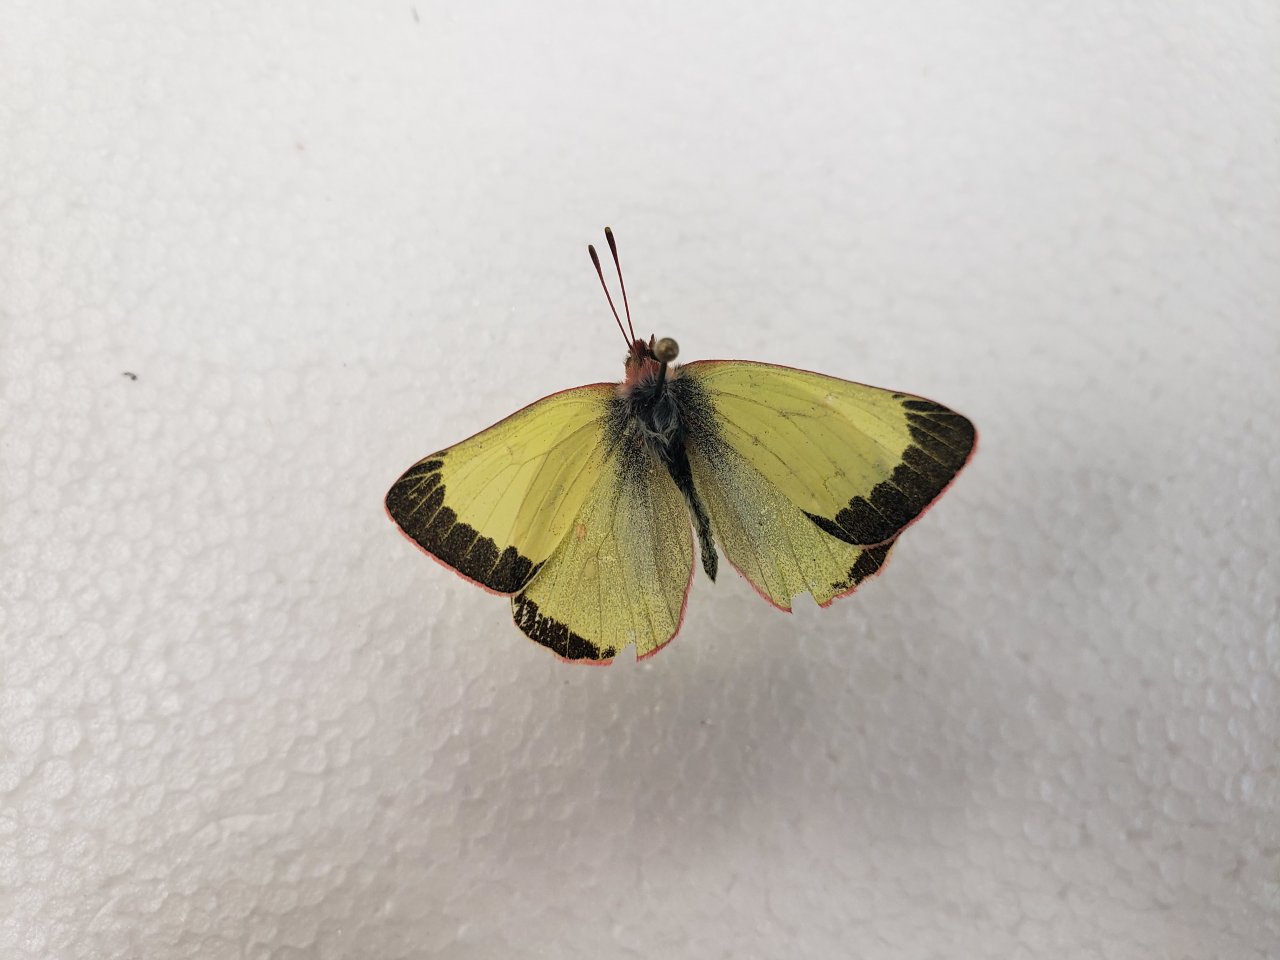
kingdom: Animalia
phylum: Arthropoda
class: Insecta
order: Lepidoptera
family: Pieridae
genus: Colias
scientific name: Colias pelidne
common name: Pelidne Sulphur
